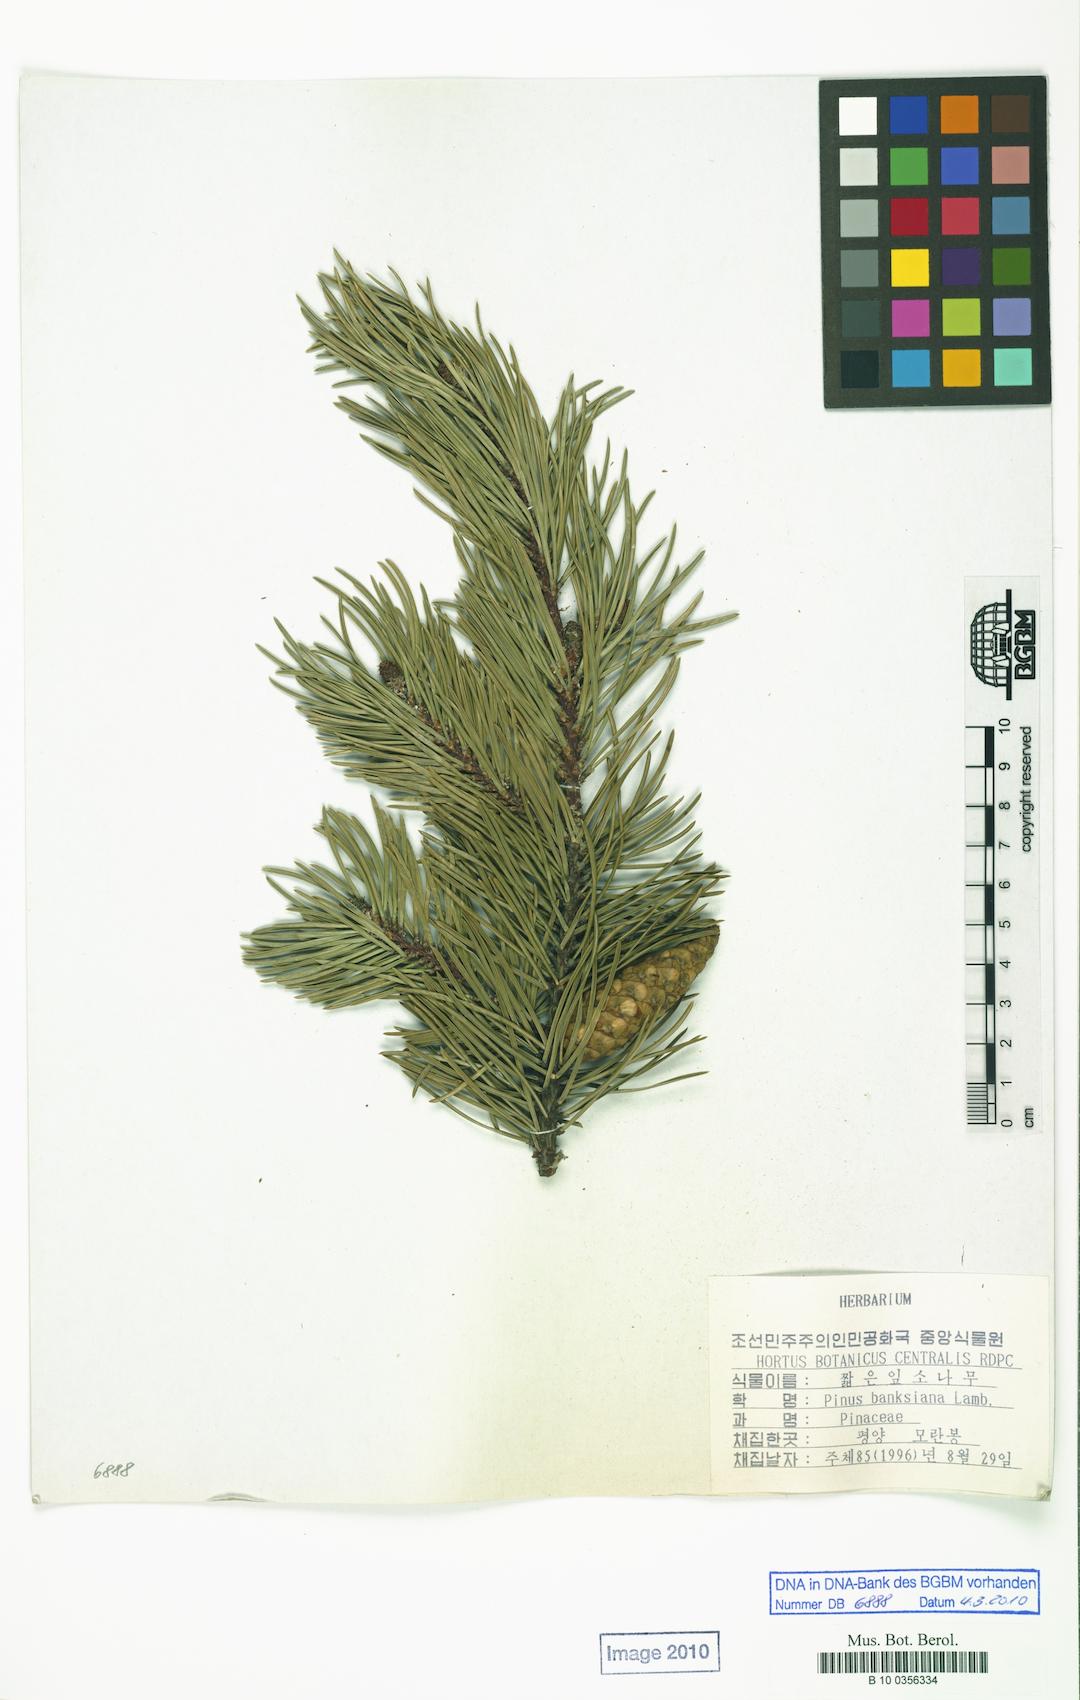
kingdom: Plantae
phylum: Tracheophyta
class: Pinopsida
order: Pinales
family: Pinaceae
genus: Pinus
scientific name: Pinus banksiana
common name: Jack pine
